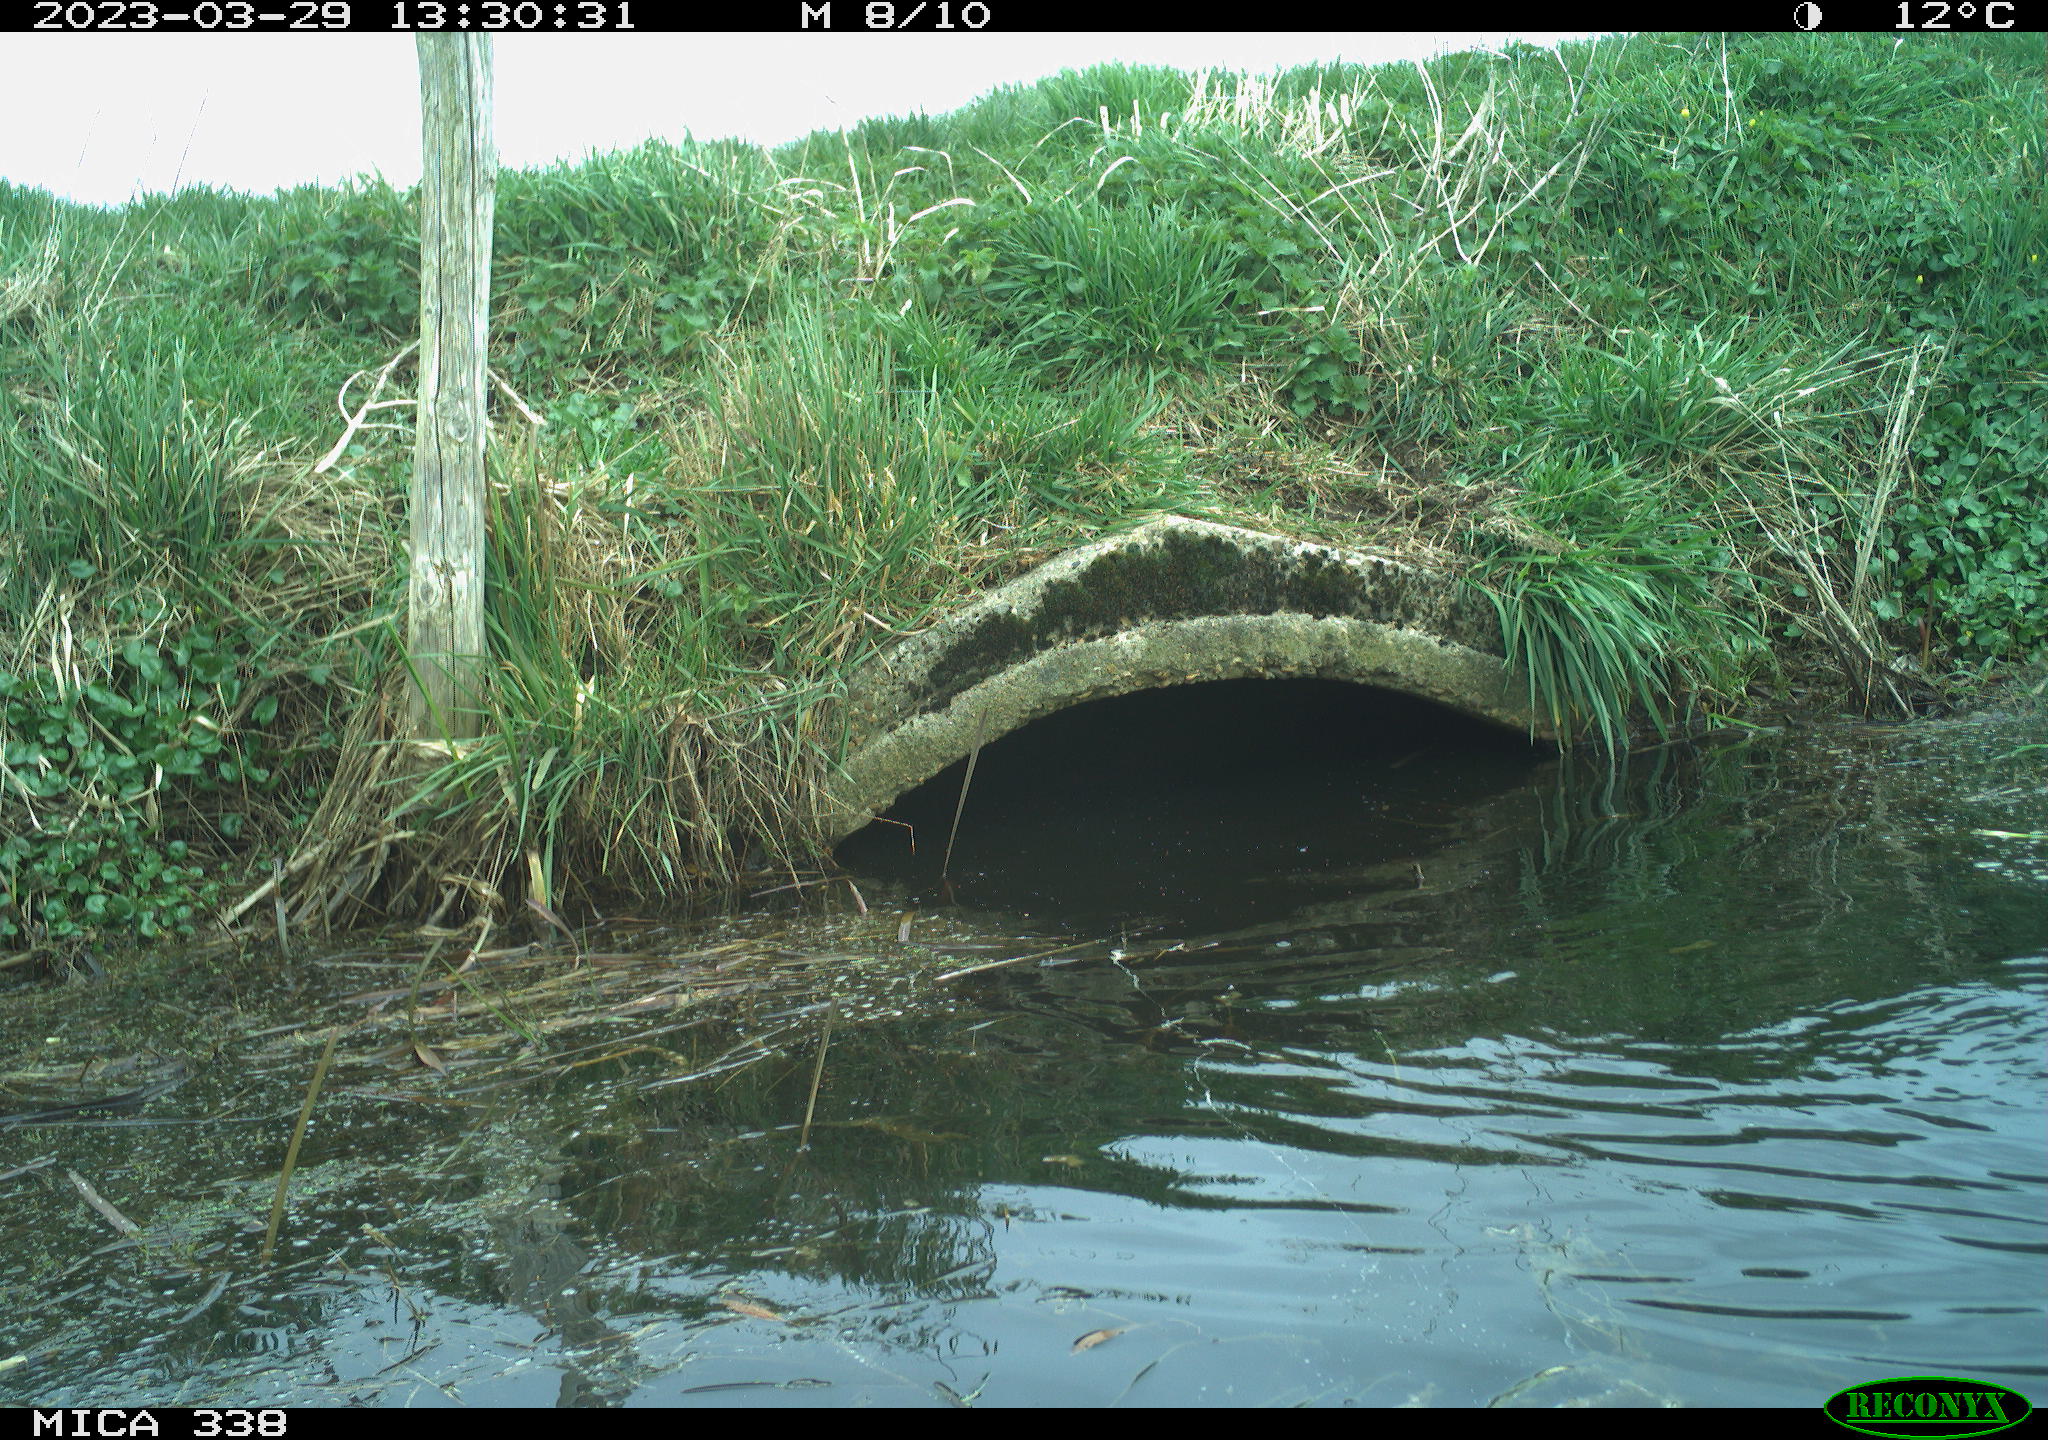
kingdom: Animalia
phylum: Chordata
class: Aves
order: Anseriformes
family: Anatidae
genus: Anas
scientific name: Anas platyrhynchos
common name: Mallard
